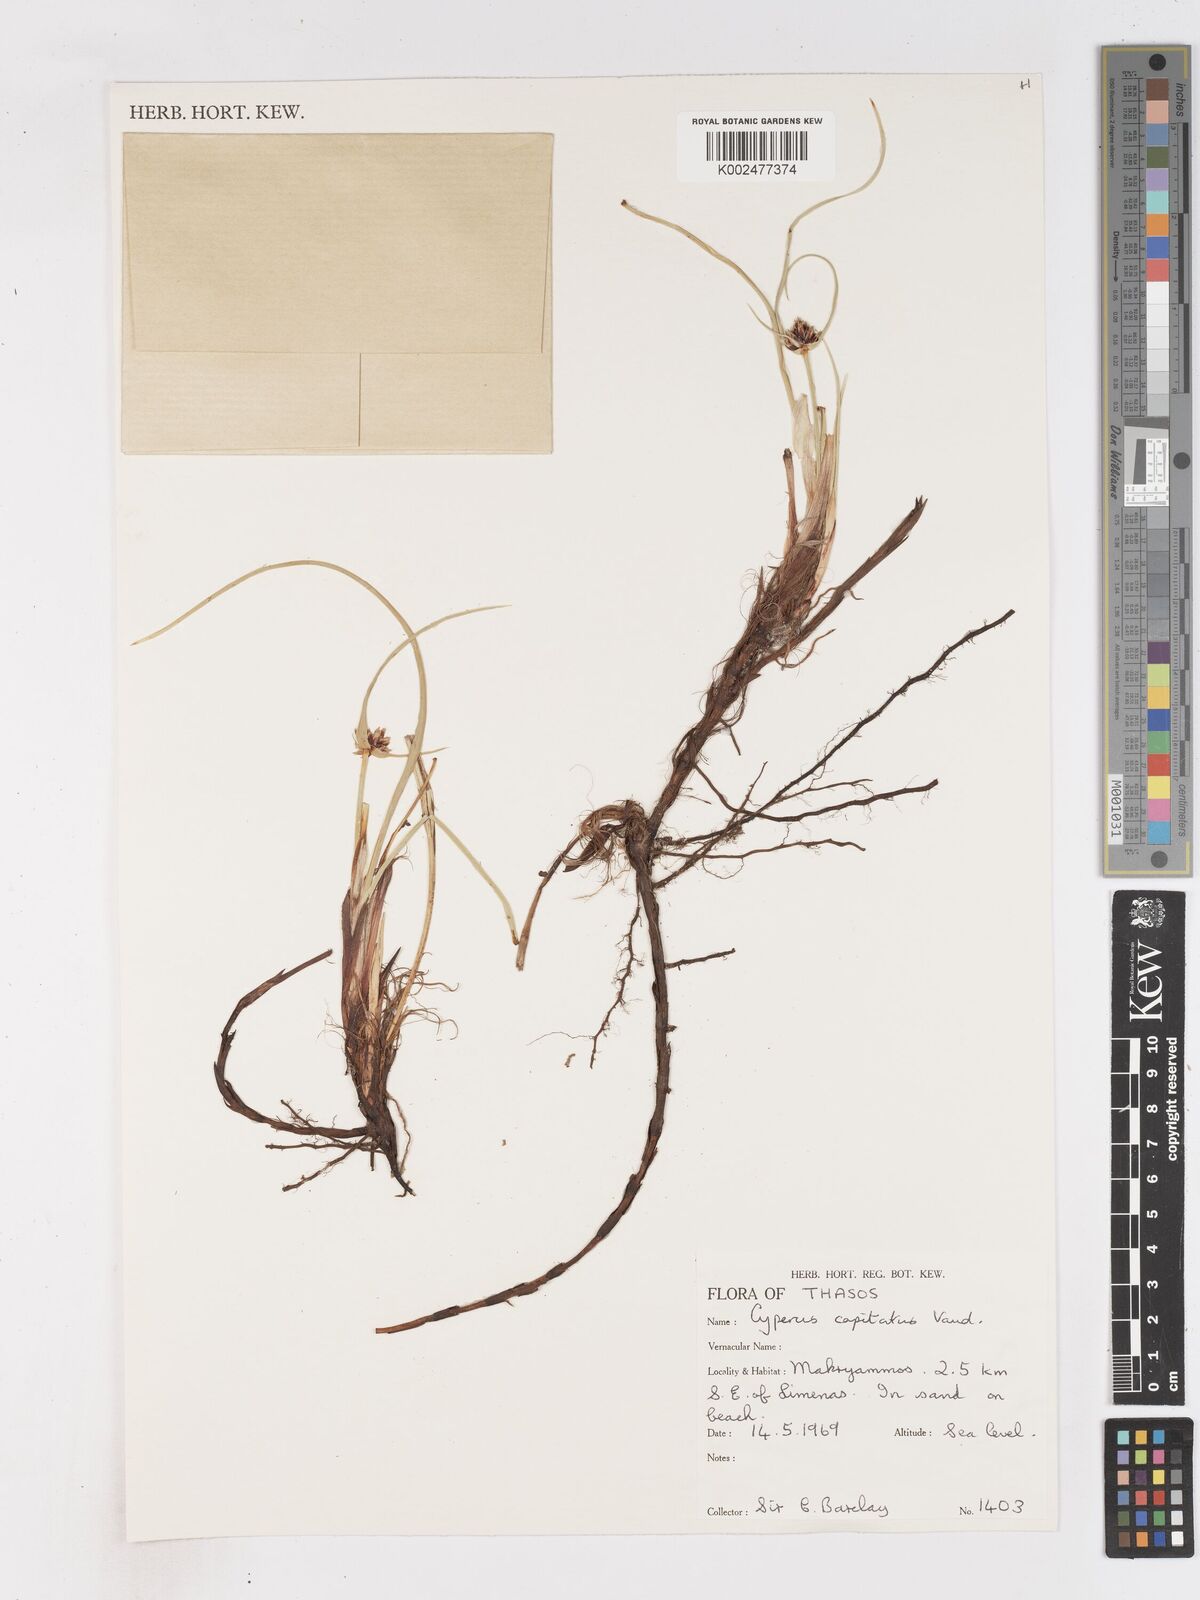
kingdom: Plantae
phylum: Tracheophyta
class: Liliopsida
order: Poales
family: Cyperaceae
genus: Cyperus
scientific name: Cyperus capitatus
